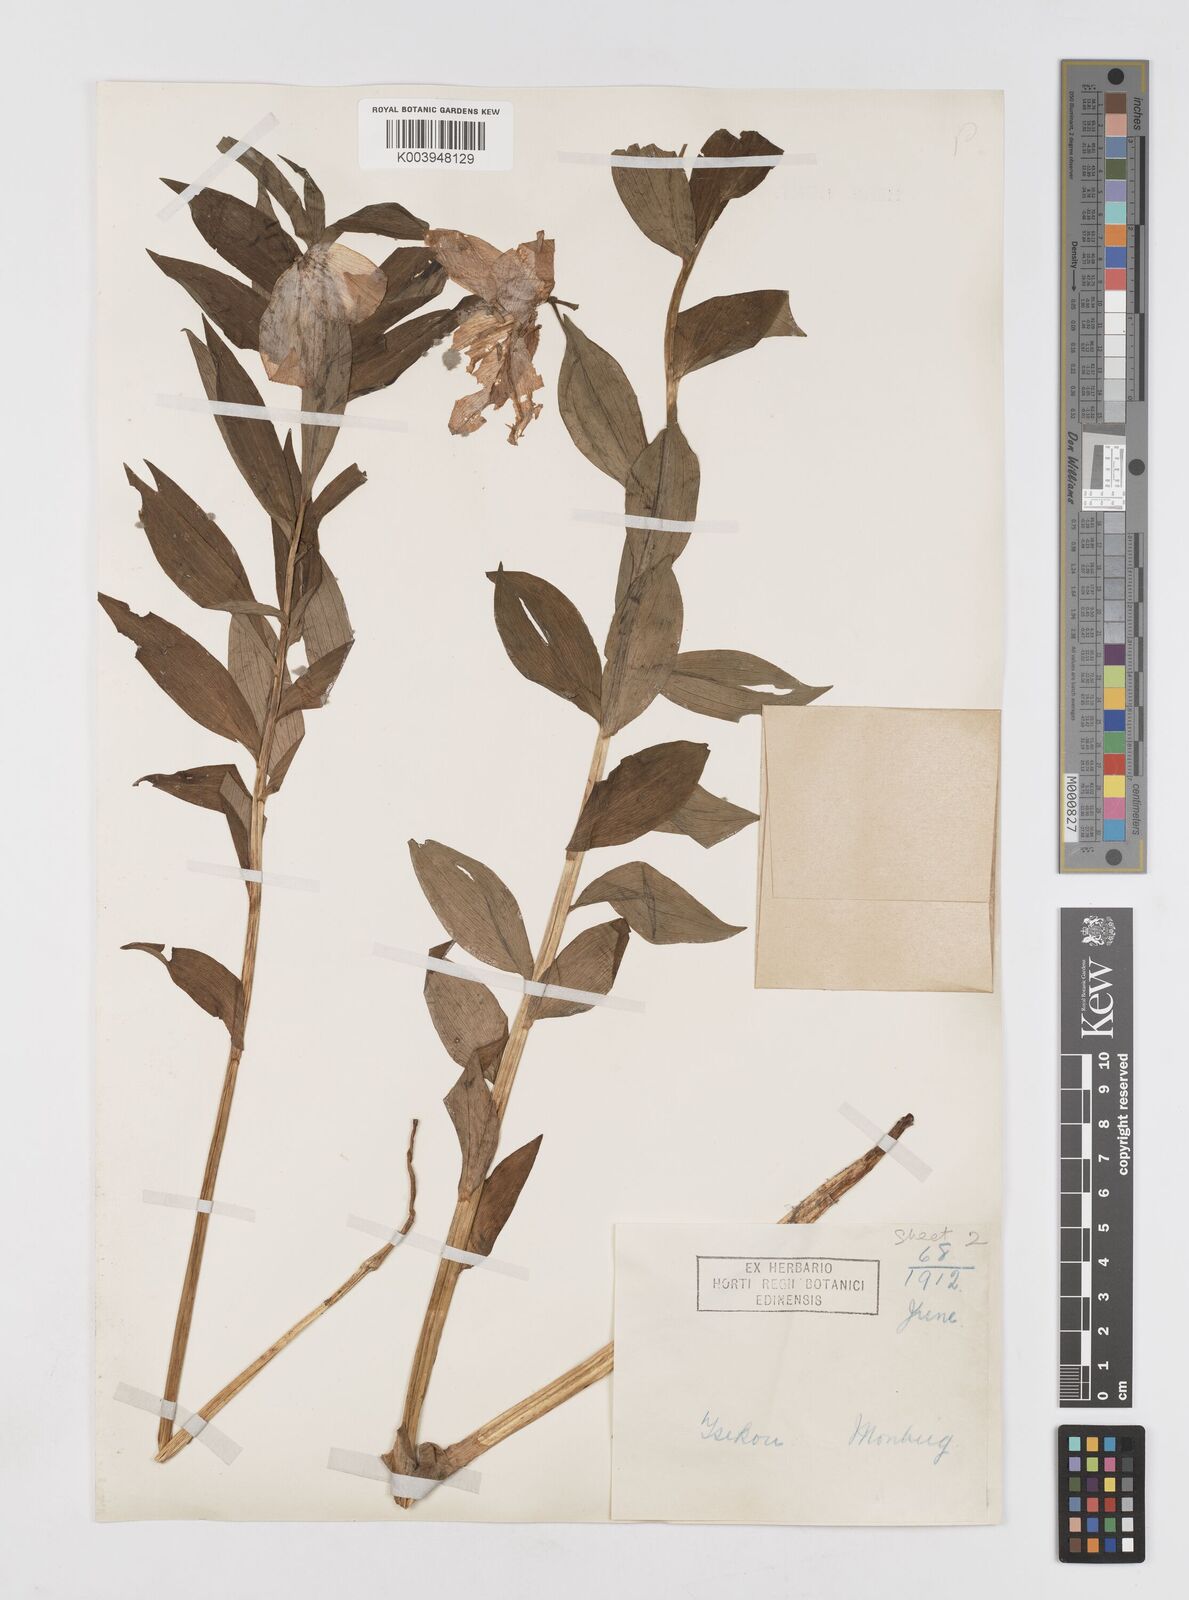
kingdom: Plantae
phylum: Tracheophyta
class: Liliopsida
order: Liliales
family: Liliaceae
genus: Lilium
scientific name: Lilium saluenense
